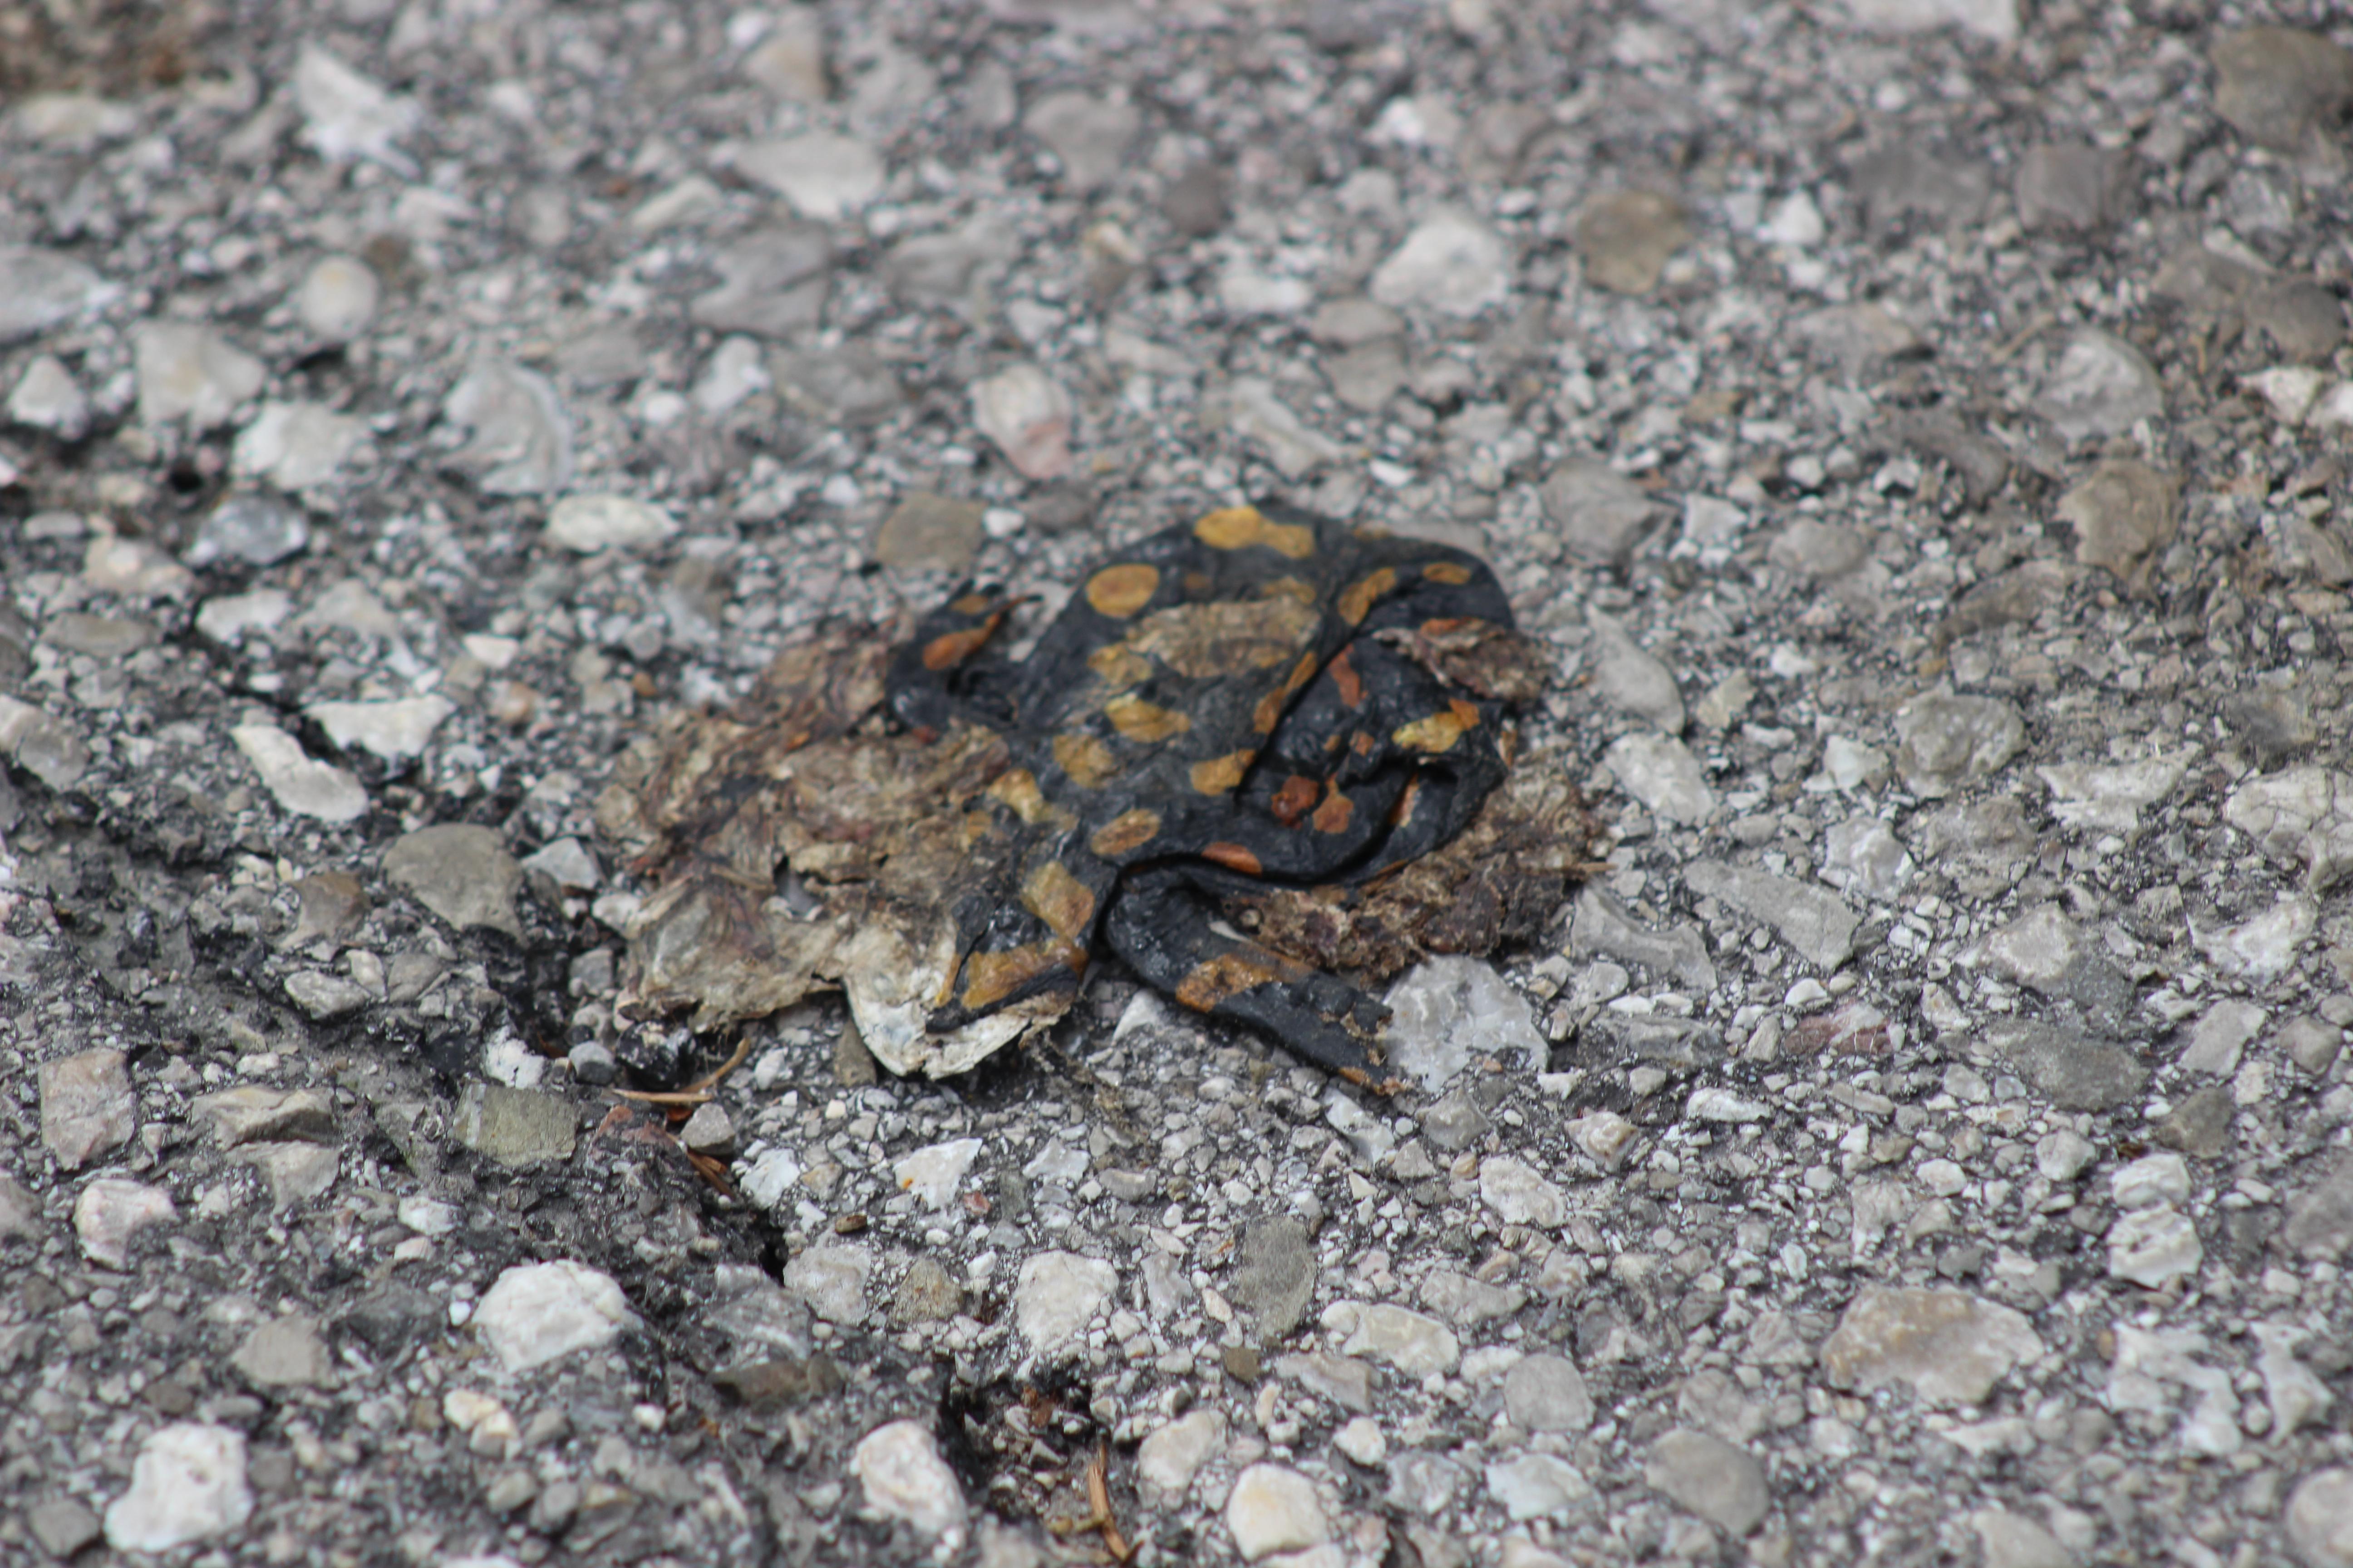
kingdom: Animalia
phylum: Chordata
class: Amphibia
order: Caudata
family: Salamandridae
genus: Salamandra
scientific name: Salamandra salamandra
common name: Fire salamander
